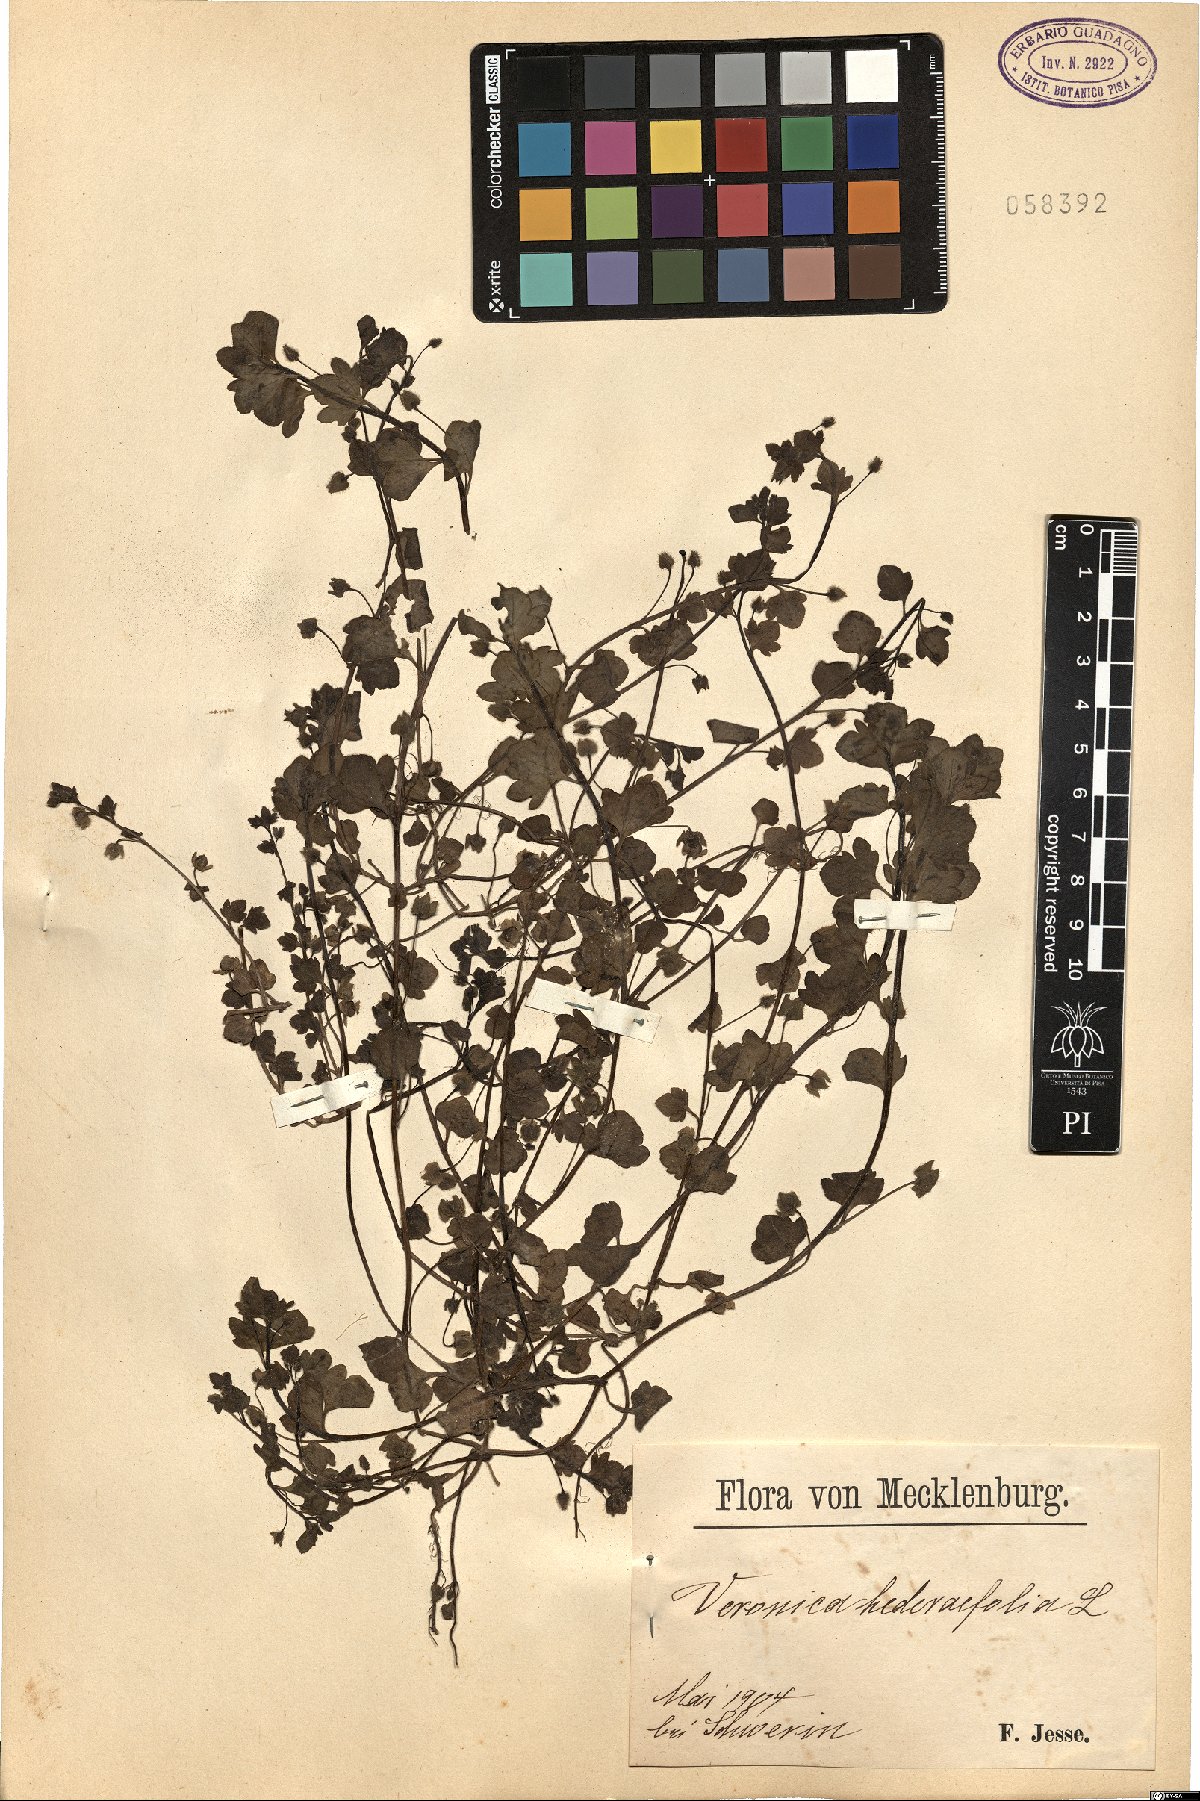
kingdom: Plantae
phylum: Tracheophyta
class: Magnoliopsida
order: Lamiales
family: Plantaginaceae
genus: Veronica
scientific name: Veronica hederifolia
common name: Ivy-leaved speedwell
